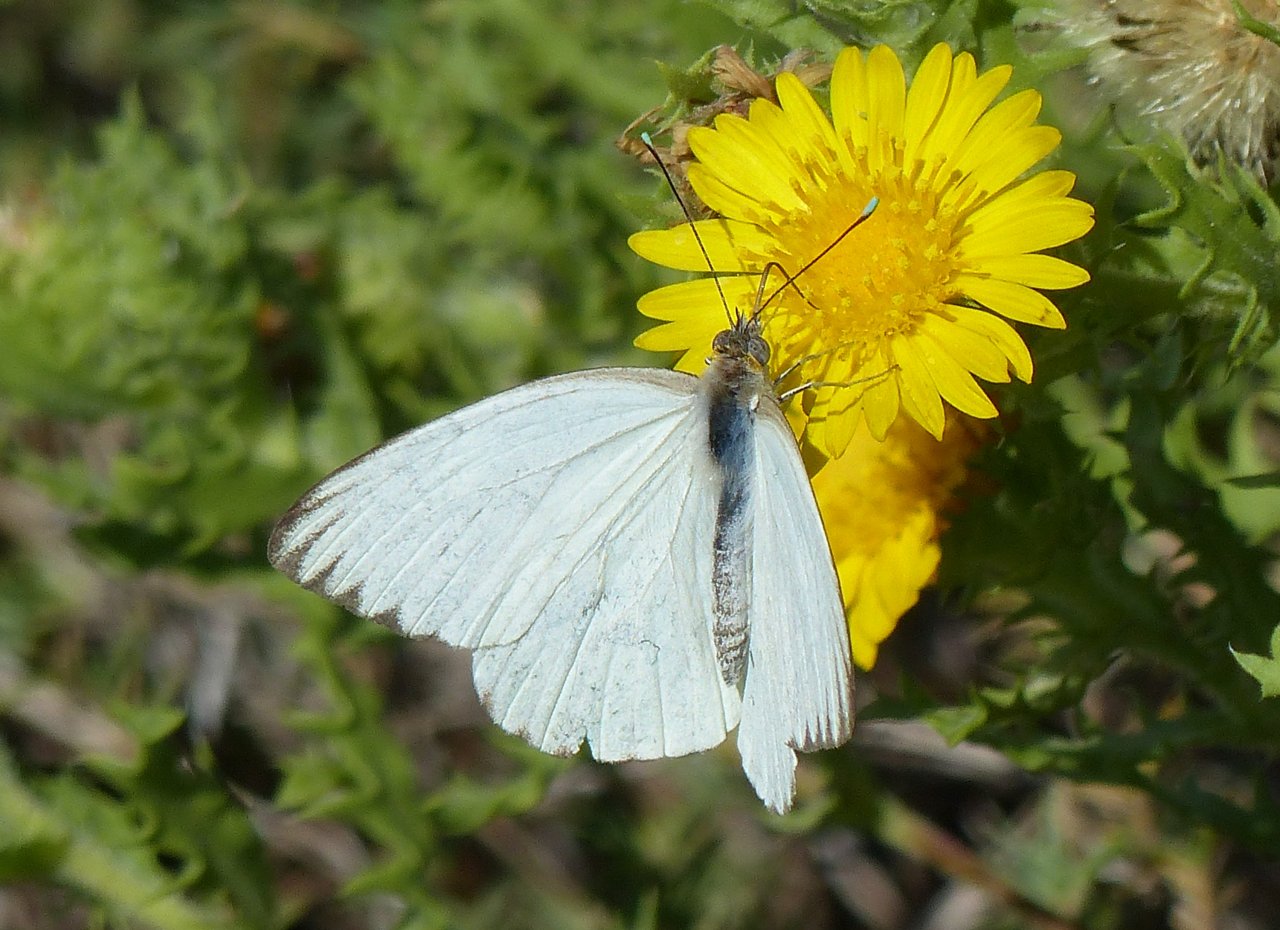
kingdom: Animalia
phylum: Arthropoda
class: Insecta
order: Lepidoptera
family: Pieridae
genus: Ascia
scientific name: Ascia monuste
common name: Great Southern White
